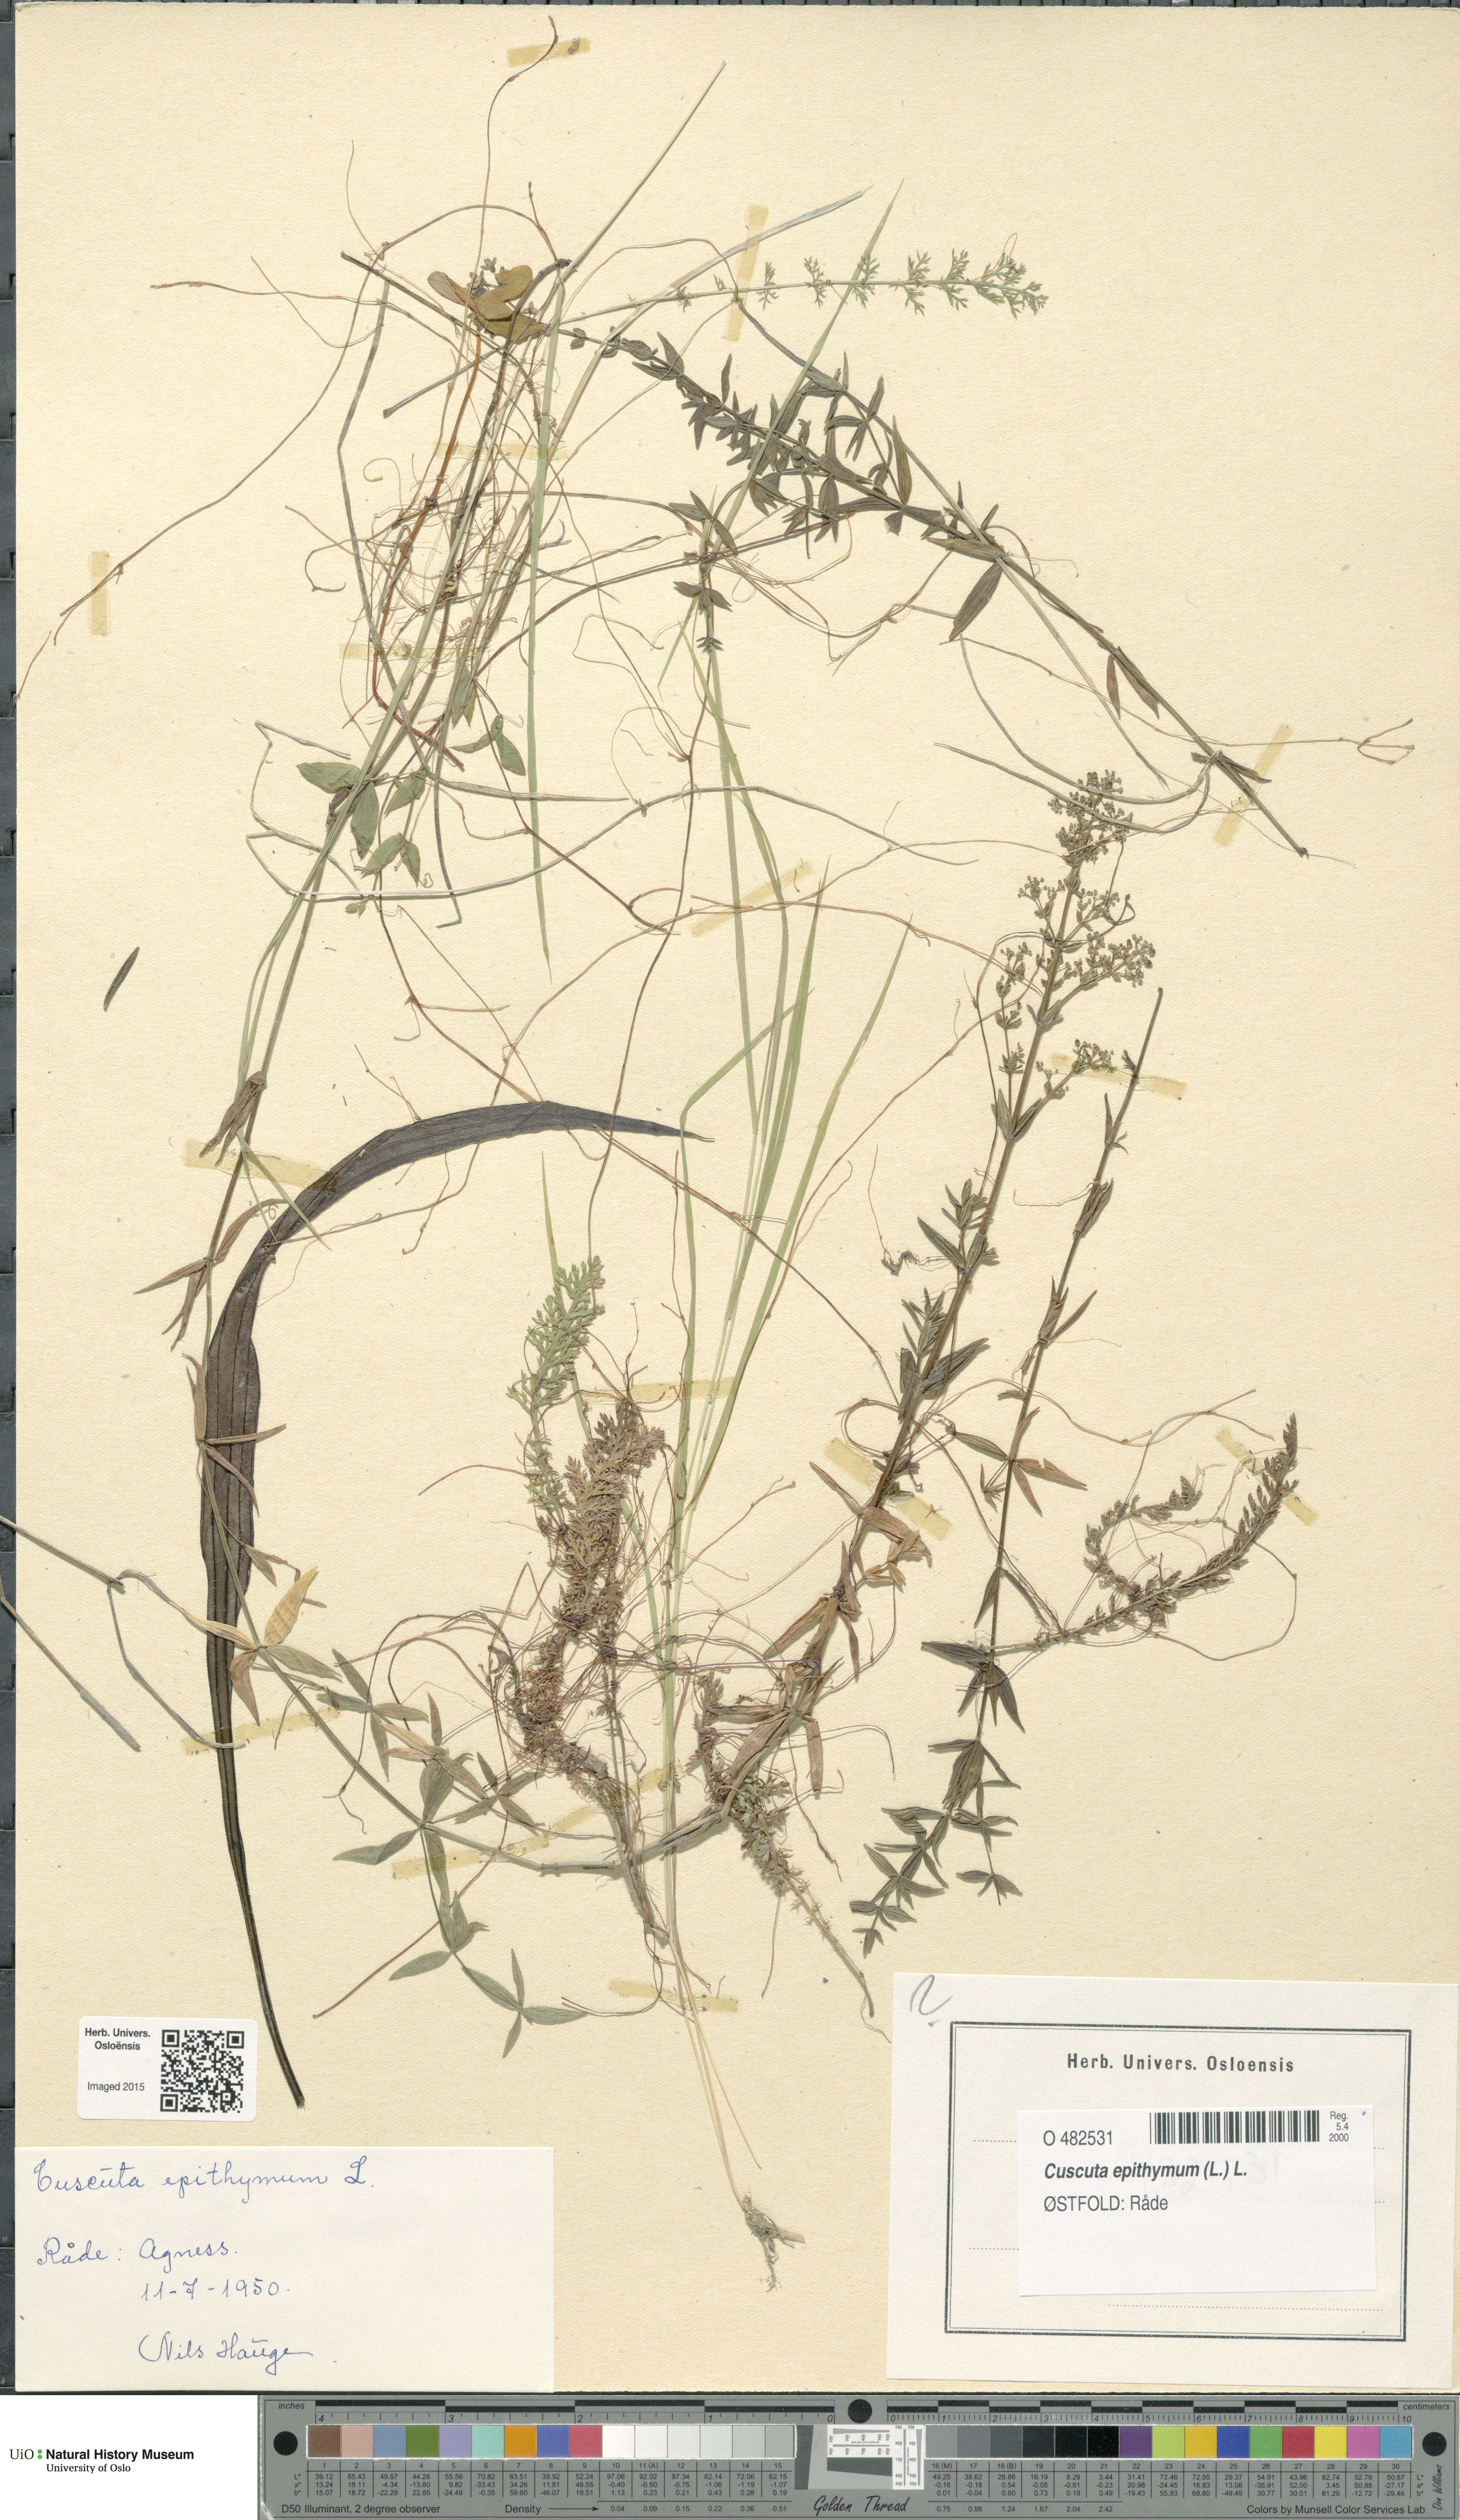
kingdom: Plantae
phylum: Tracheophyta
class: Magnoliopsida
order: Solanales
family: Convolvulaceae
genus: Cuscuta
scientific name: Cuscuta epithymum
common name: Clover dodder
